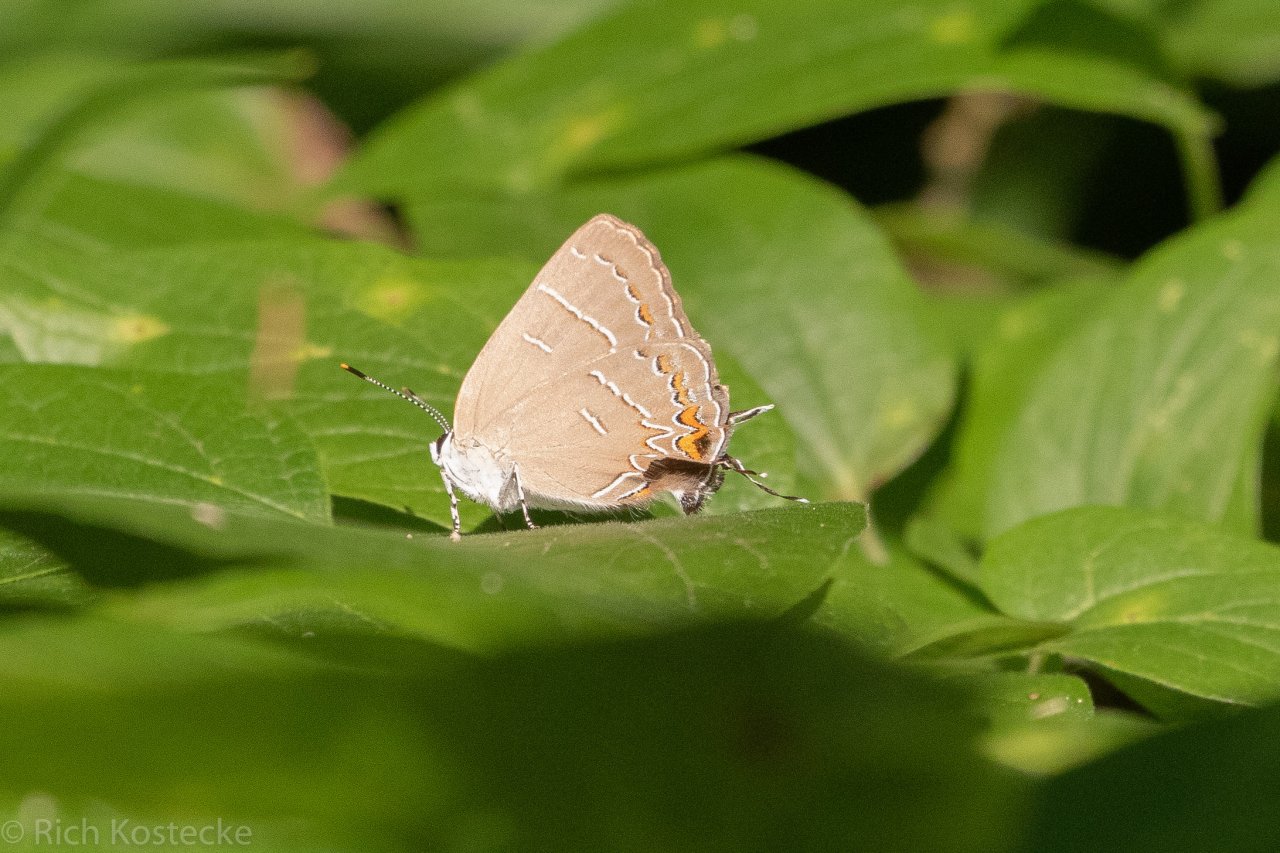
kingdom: Animalia
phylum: Arthropoda
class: Insecta
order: Lepidoptera
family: Lycaenidae
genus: Phaeostrymon
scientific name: Phaeostrymon alcestis
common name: Soapberry Hairstreak
